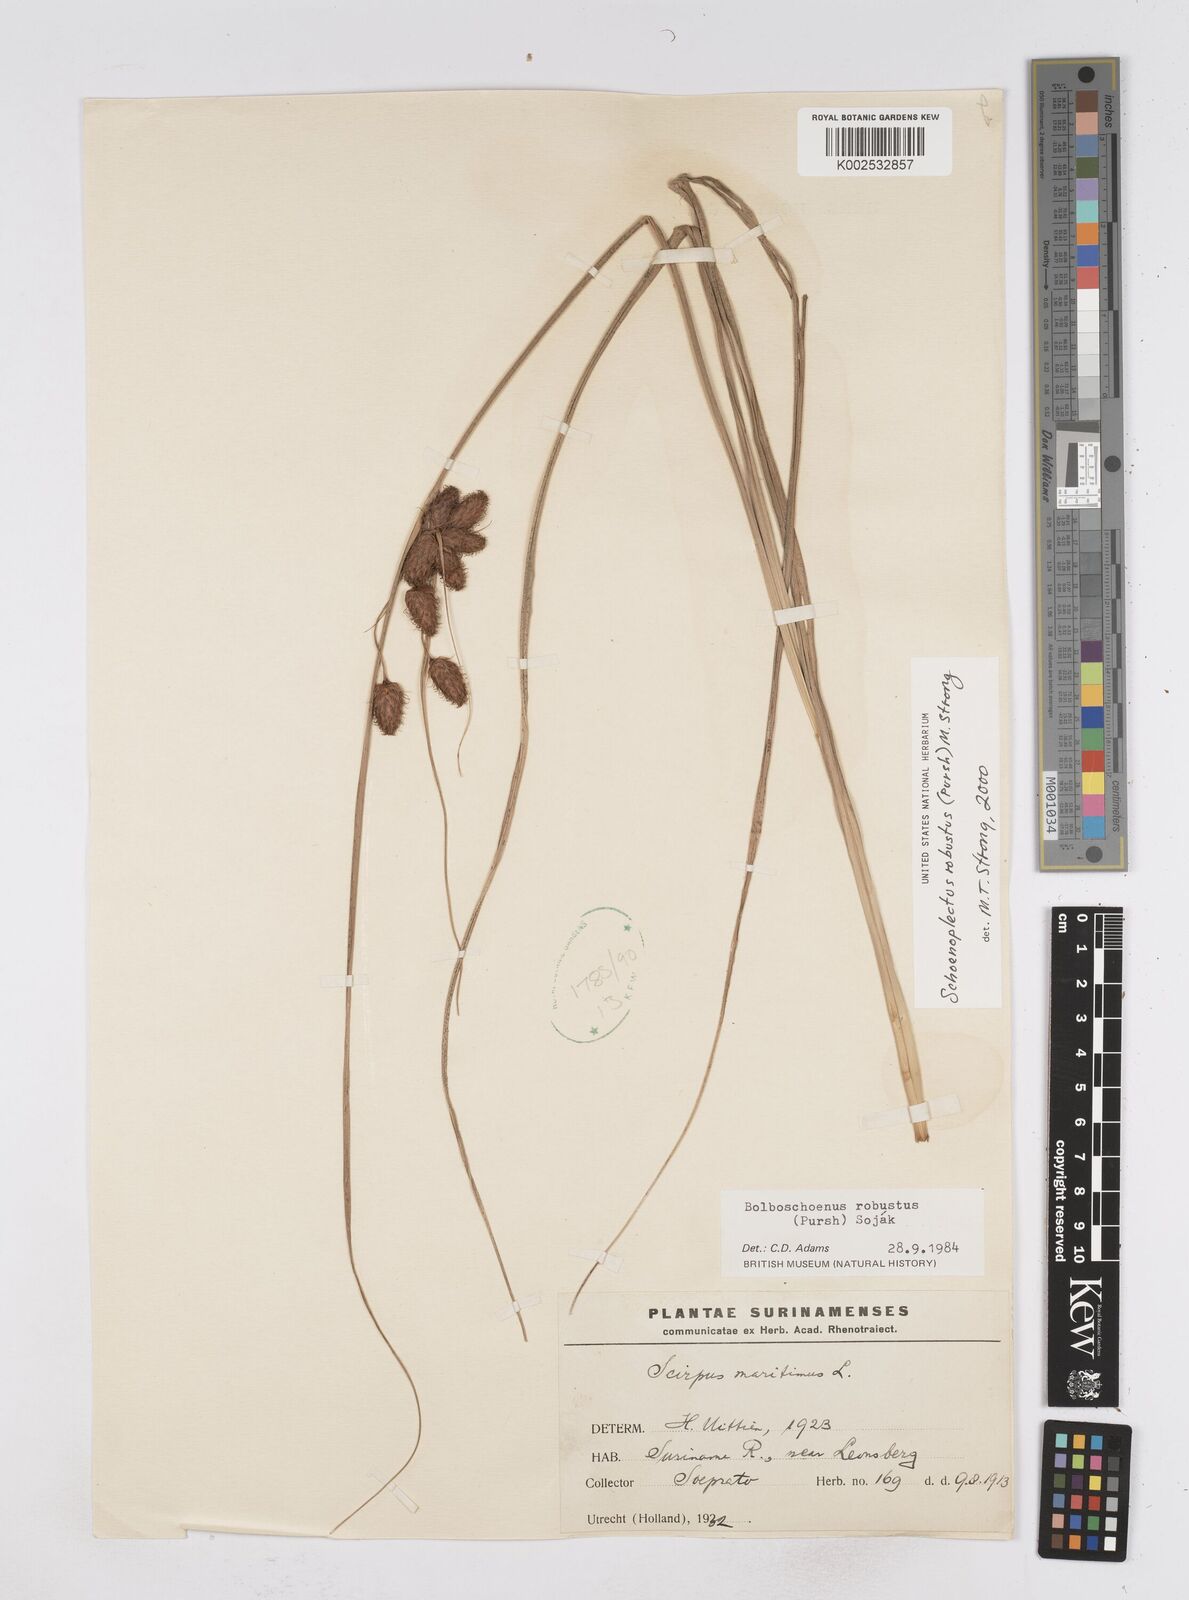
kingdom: Plantae
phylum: Tracheophyta
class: Liliopsida
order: Poales
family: Cyperaceae
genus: Bolboschoenus
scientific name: Bolboschoenus robustus
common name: Seacoast bulrush
